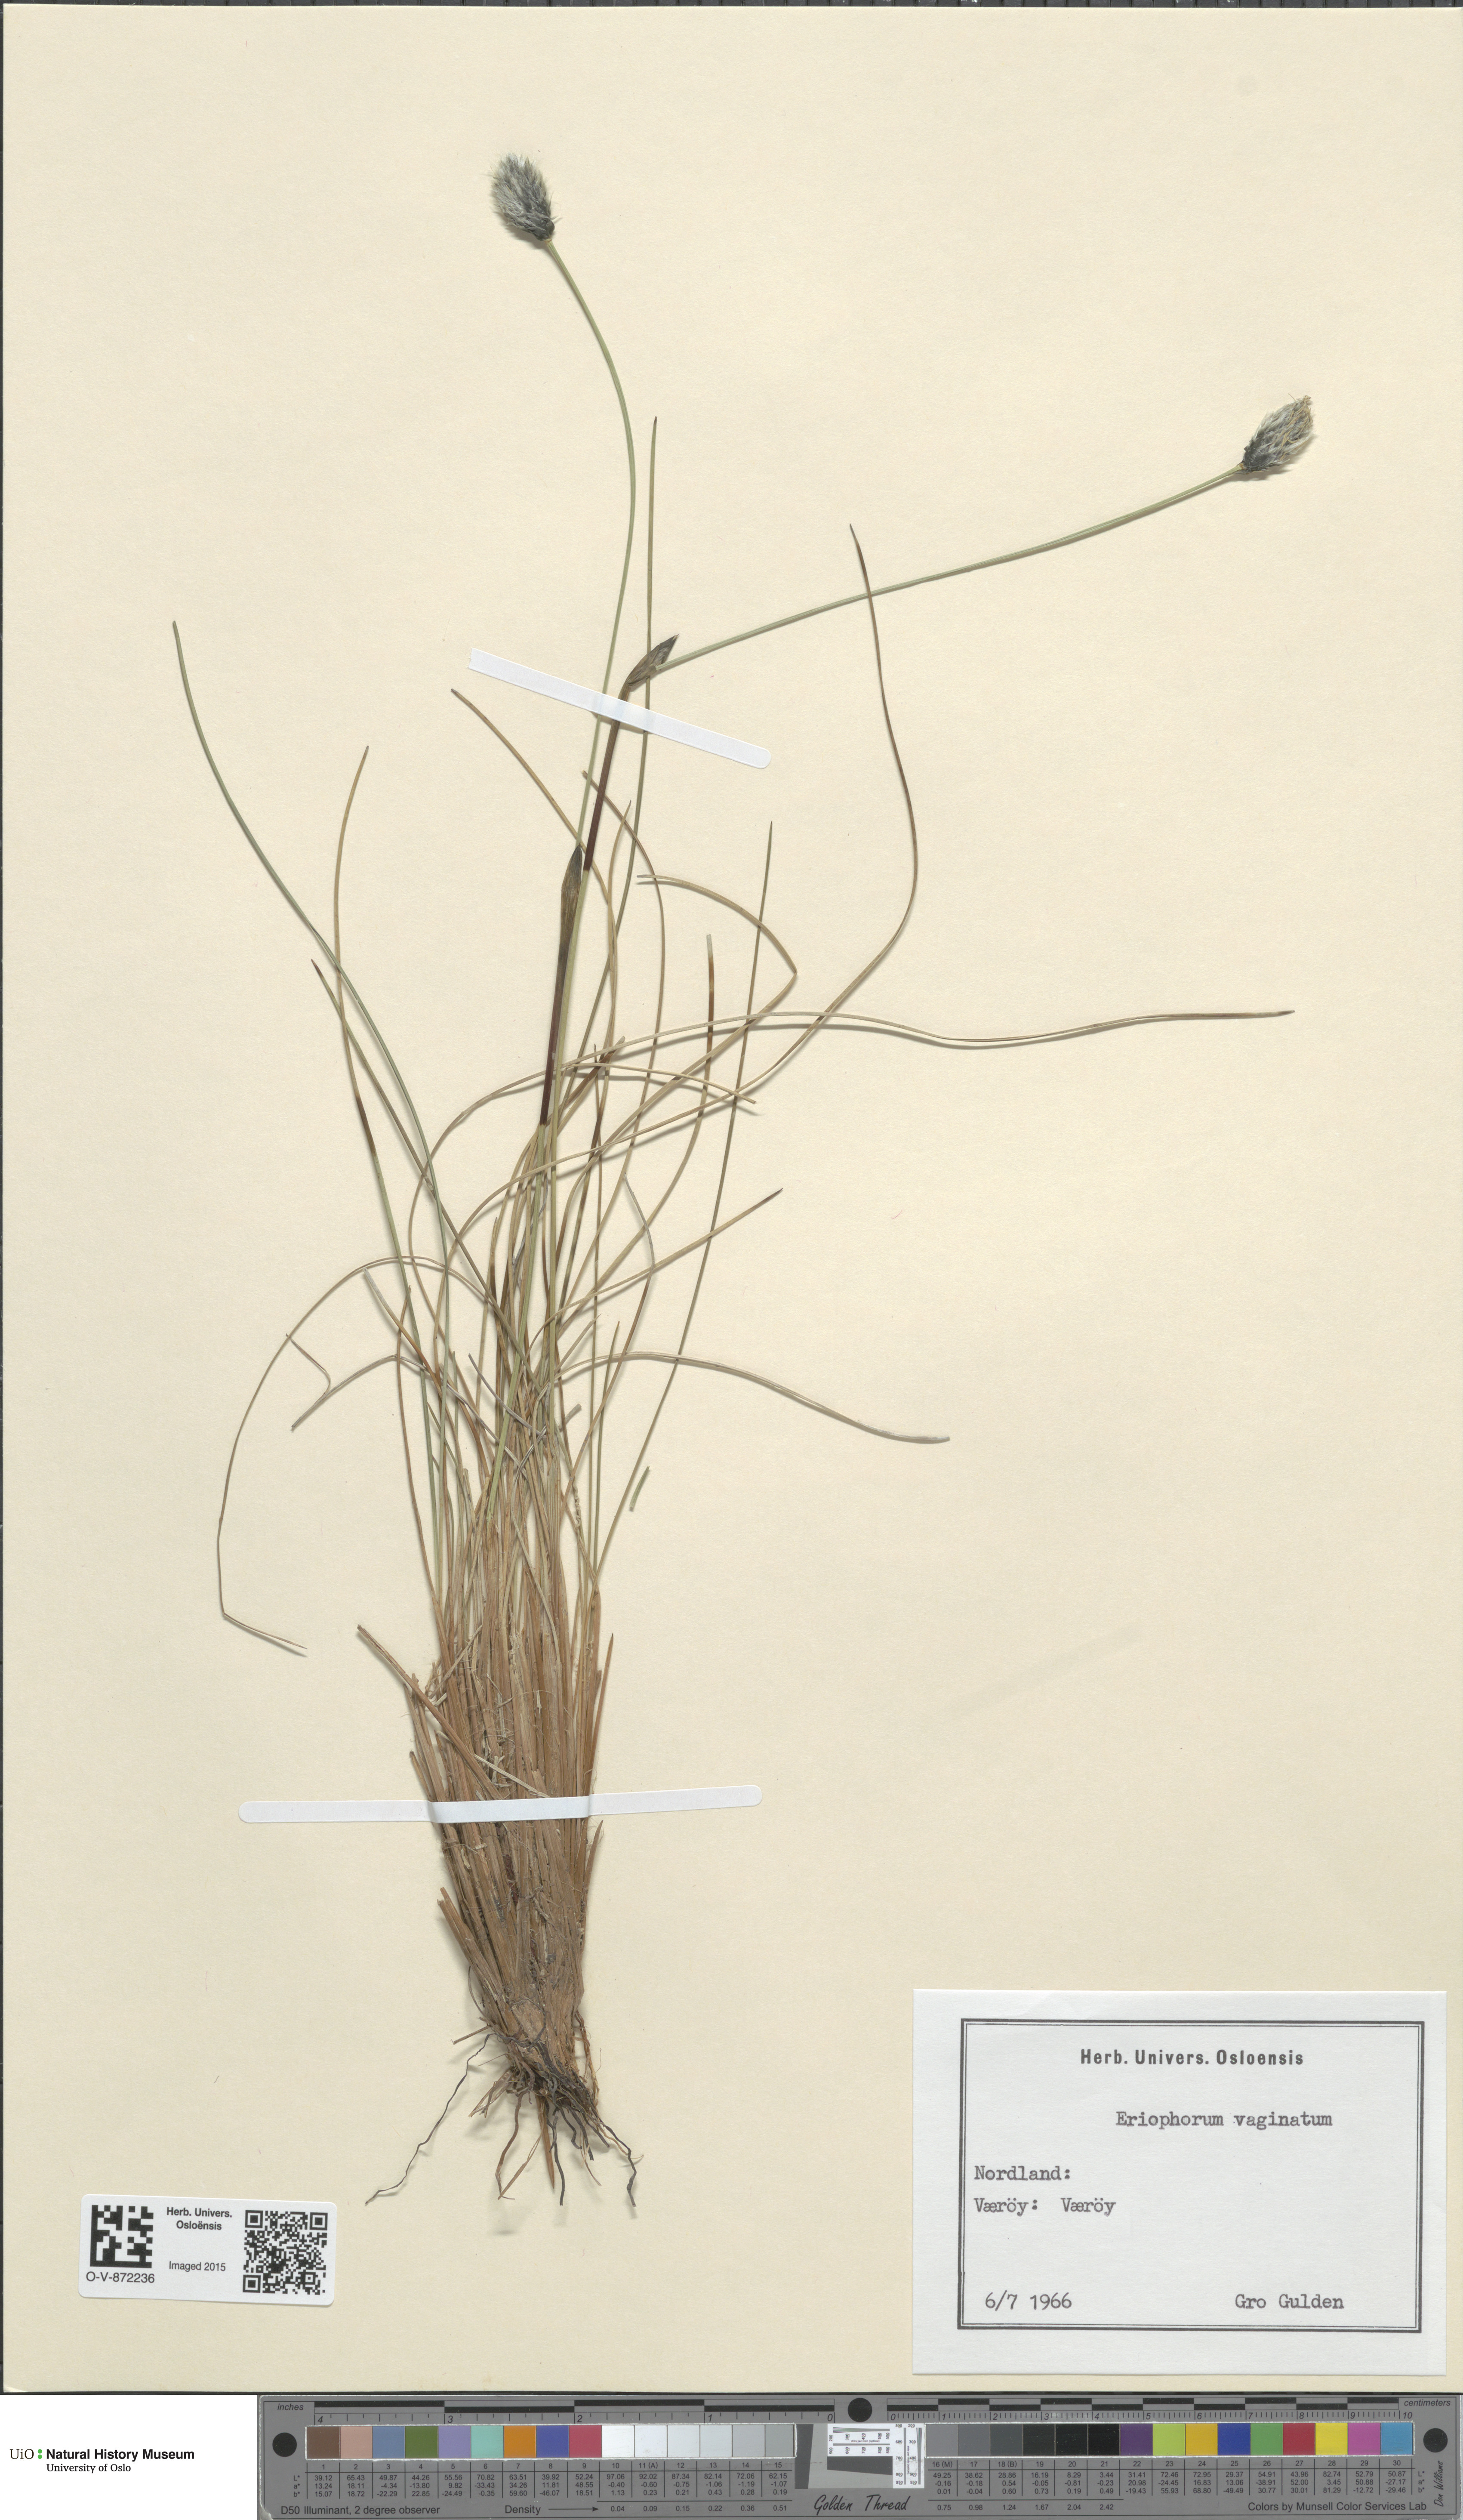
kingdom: Plantae
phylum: Tracheophyta
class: Liliopsida
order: Poales
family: Cyperaceae
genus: Eriophorum
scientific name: Eriophorum vaginatum
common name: Hare's-tail cottongrass
